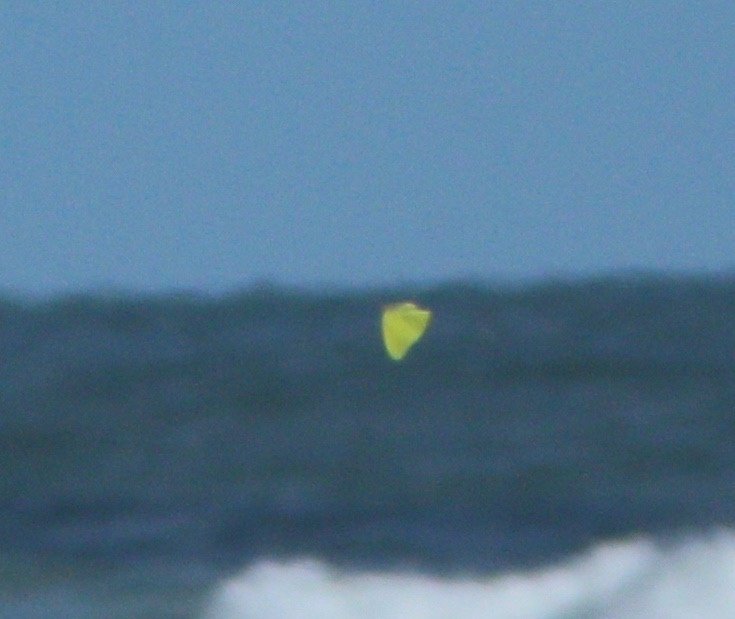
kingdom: Animalia
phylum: Arthropoda
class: Insecta
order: Lepidoptera
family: Pieridae
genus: Phoebis
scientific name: Phoebis sennae
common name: Cloudless Sulphur
